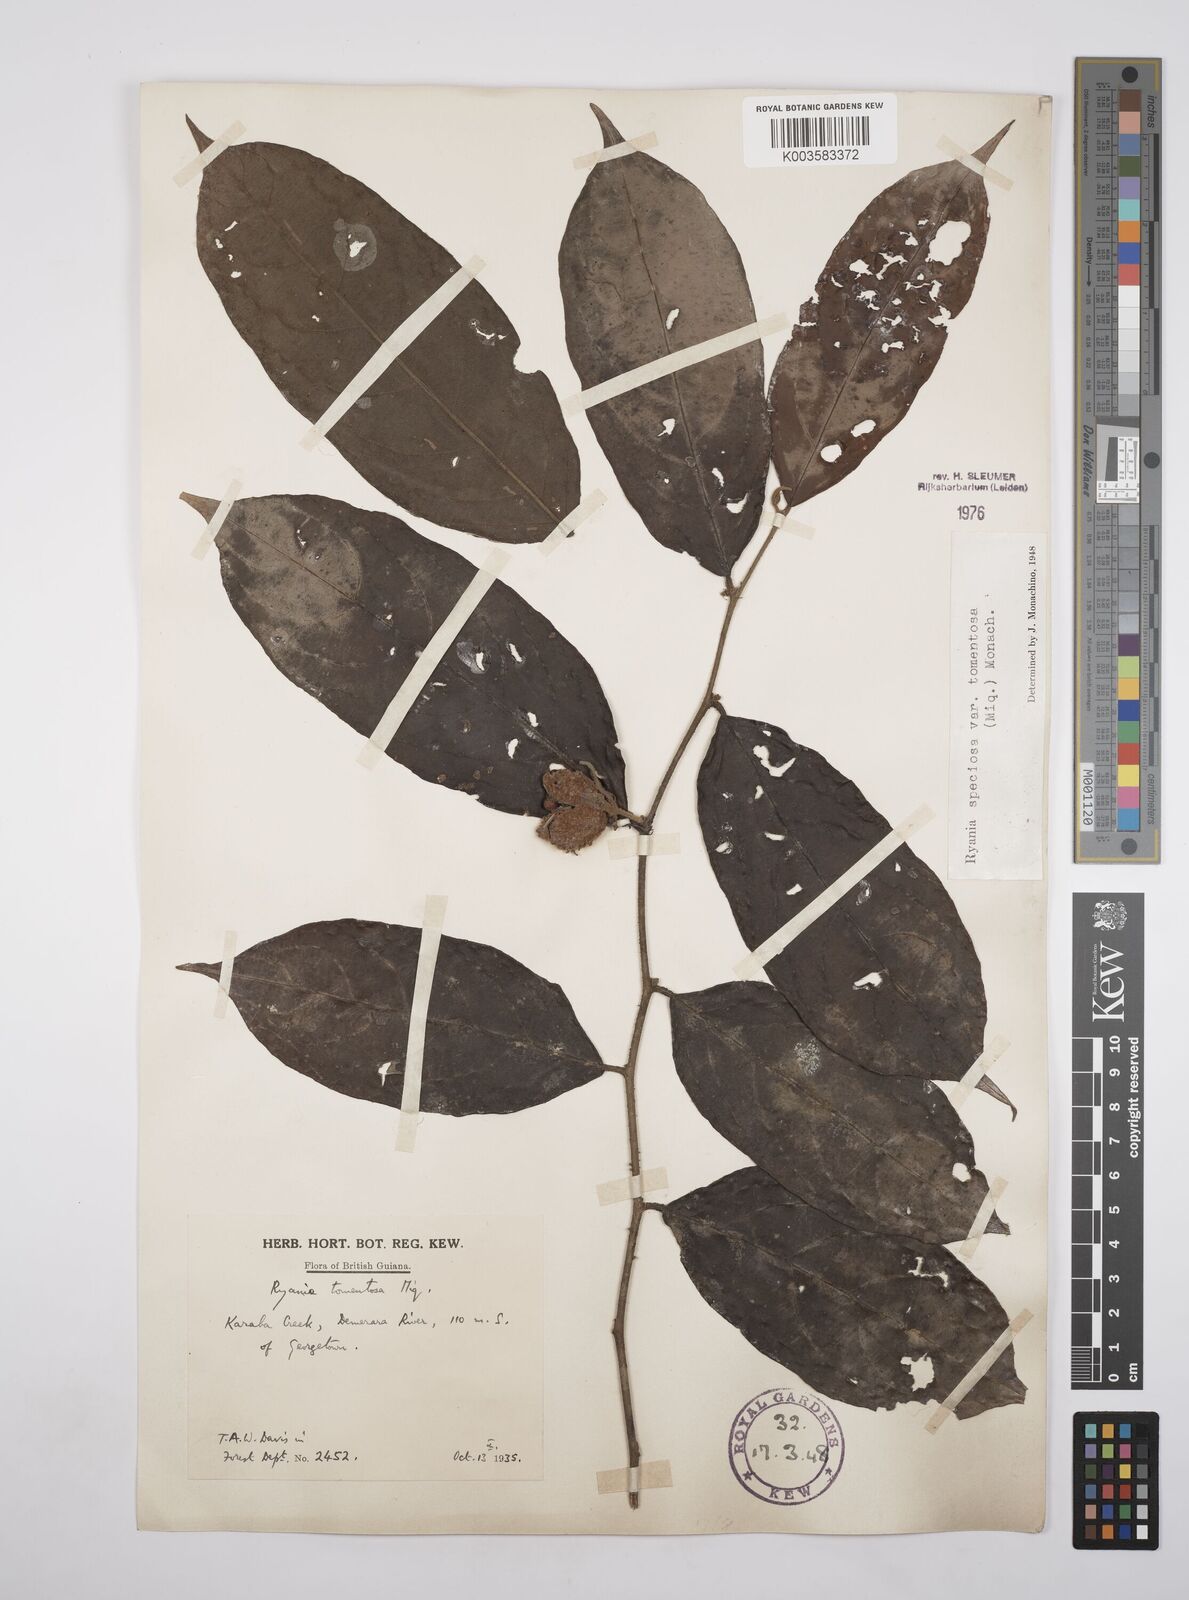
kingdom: Plantae
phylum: Tracheophyta
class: Magnoliopsida
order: Malpighiales
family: Salicaceae
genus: Ryania
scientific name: Ryania speciosa
